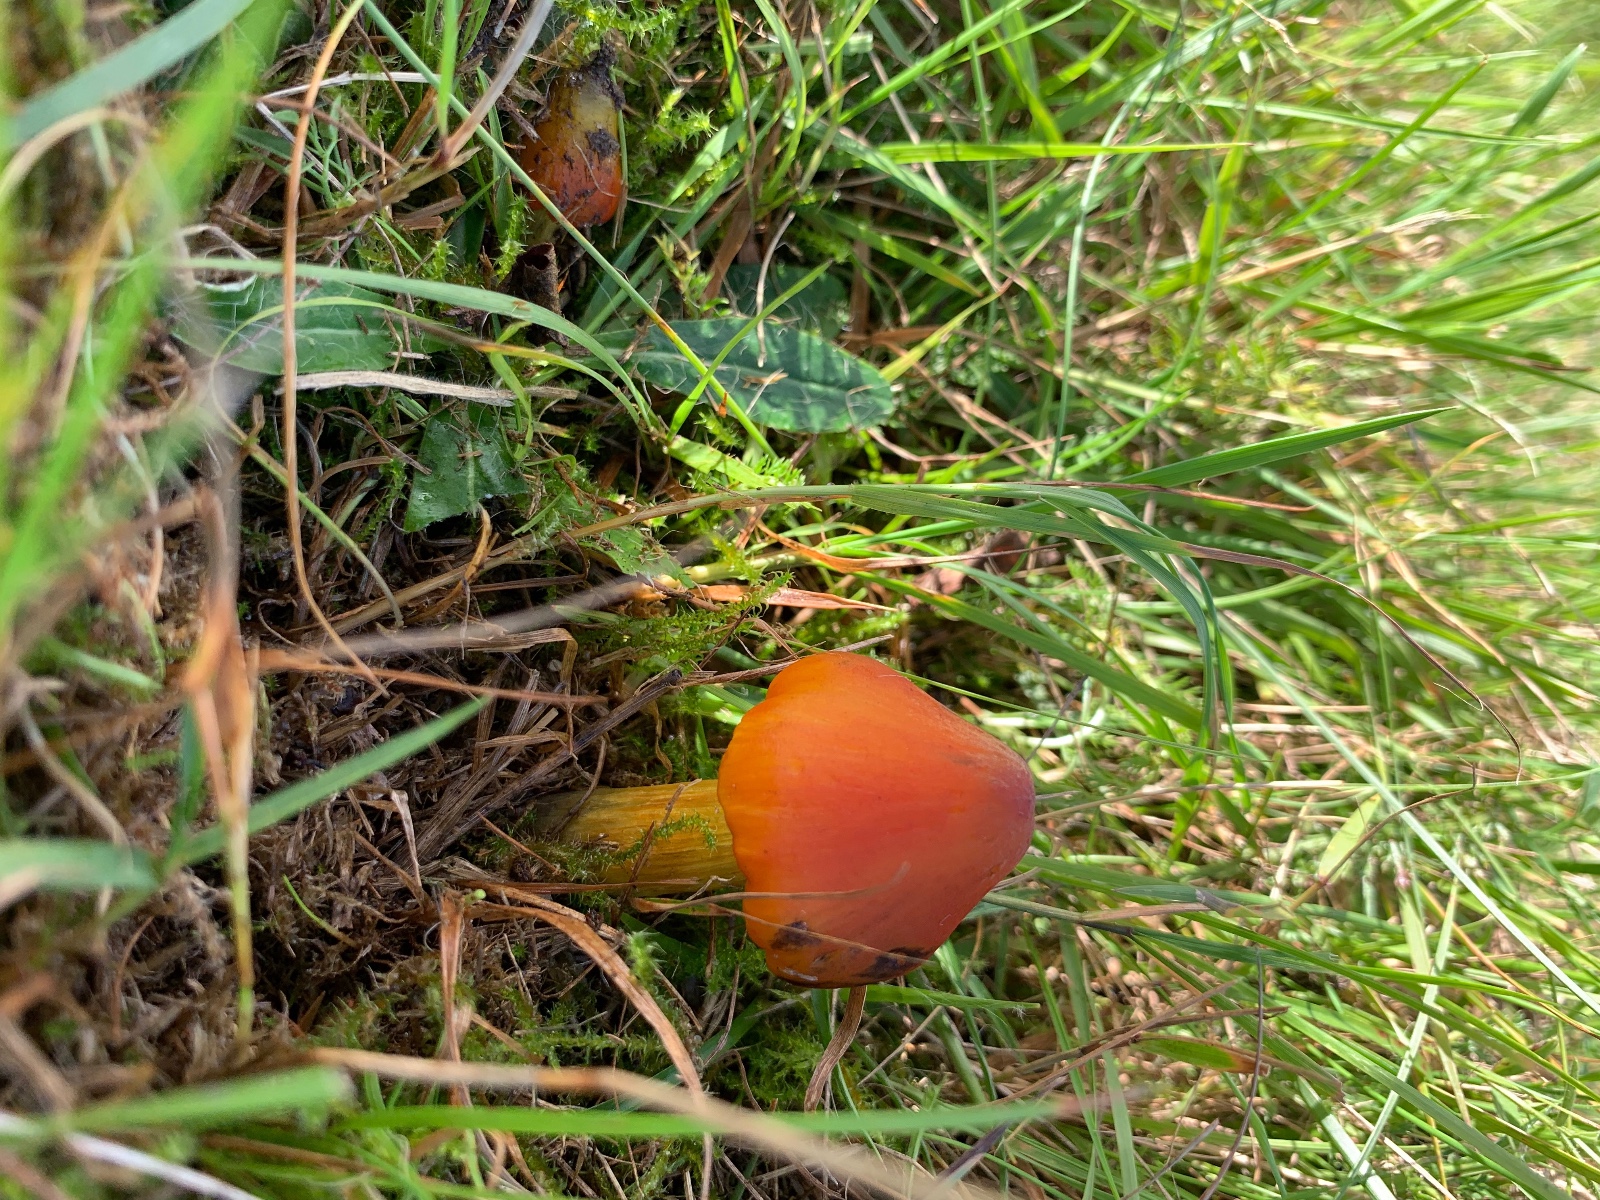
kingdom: Fungi
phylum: Basidiomycota
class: Agaricomycetes
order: Agaricales
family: Hygrophoraceae
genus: Hygrocybe
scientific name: Hygrocybe conica
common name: kegle-vokshat
